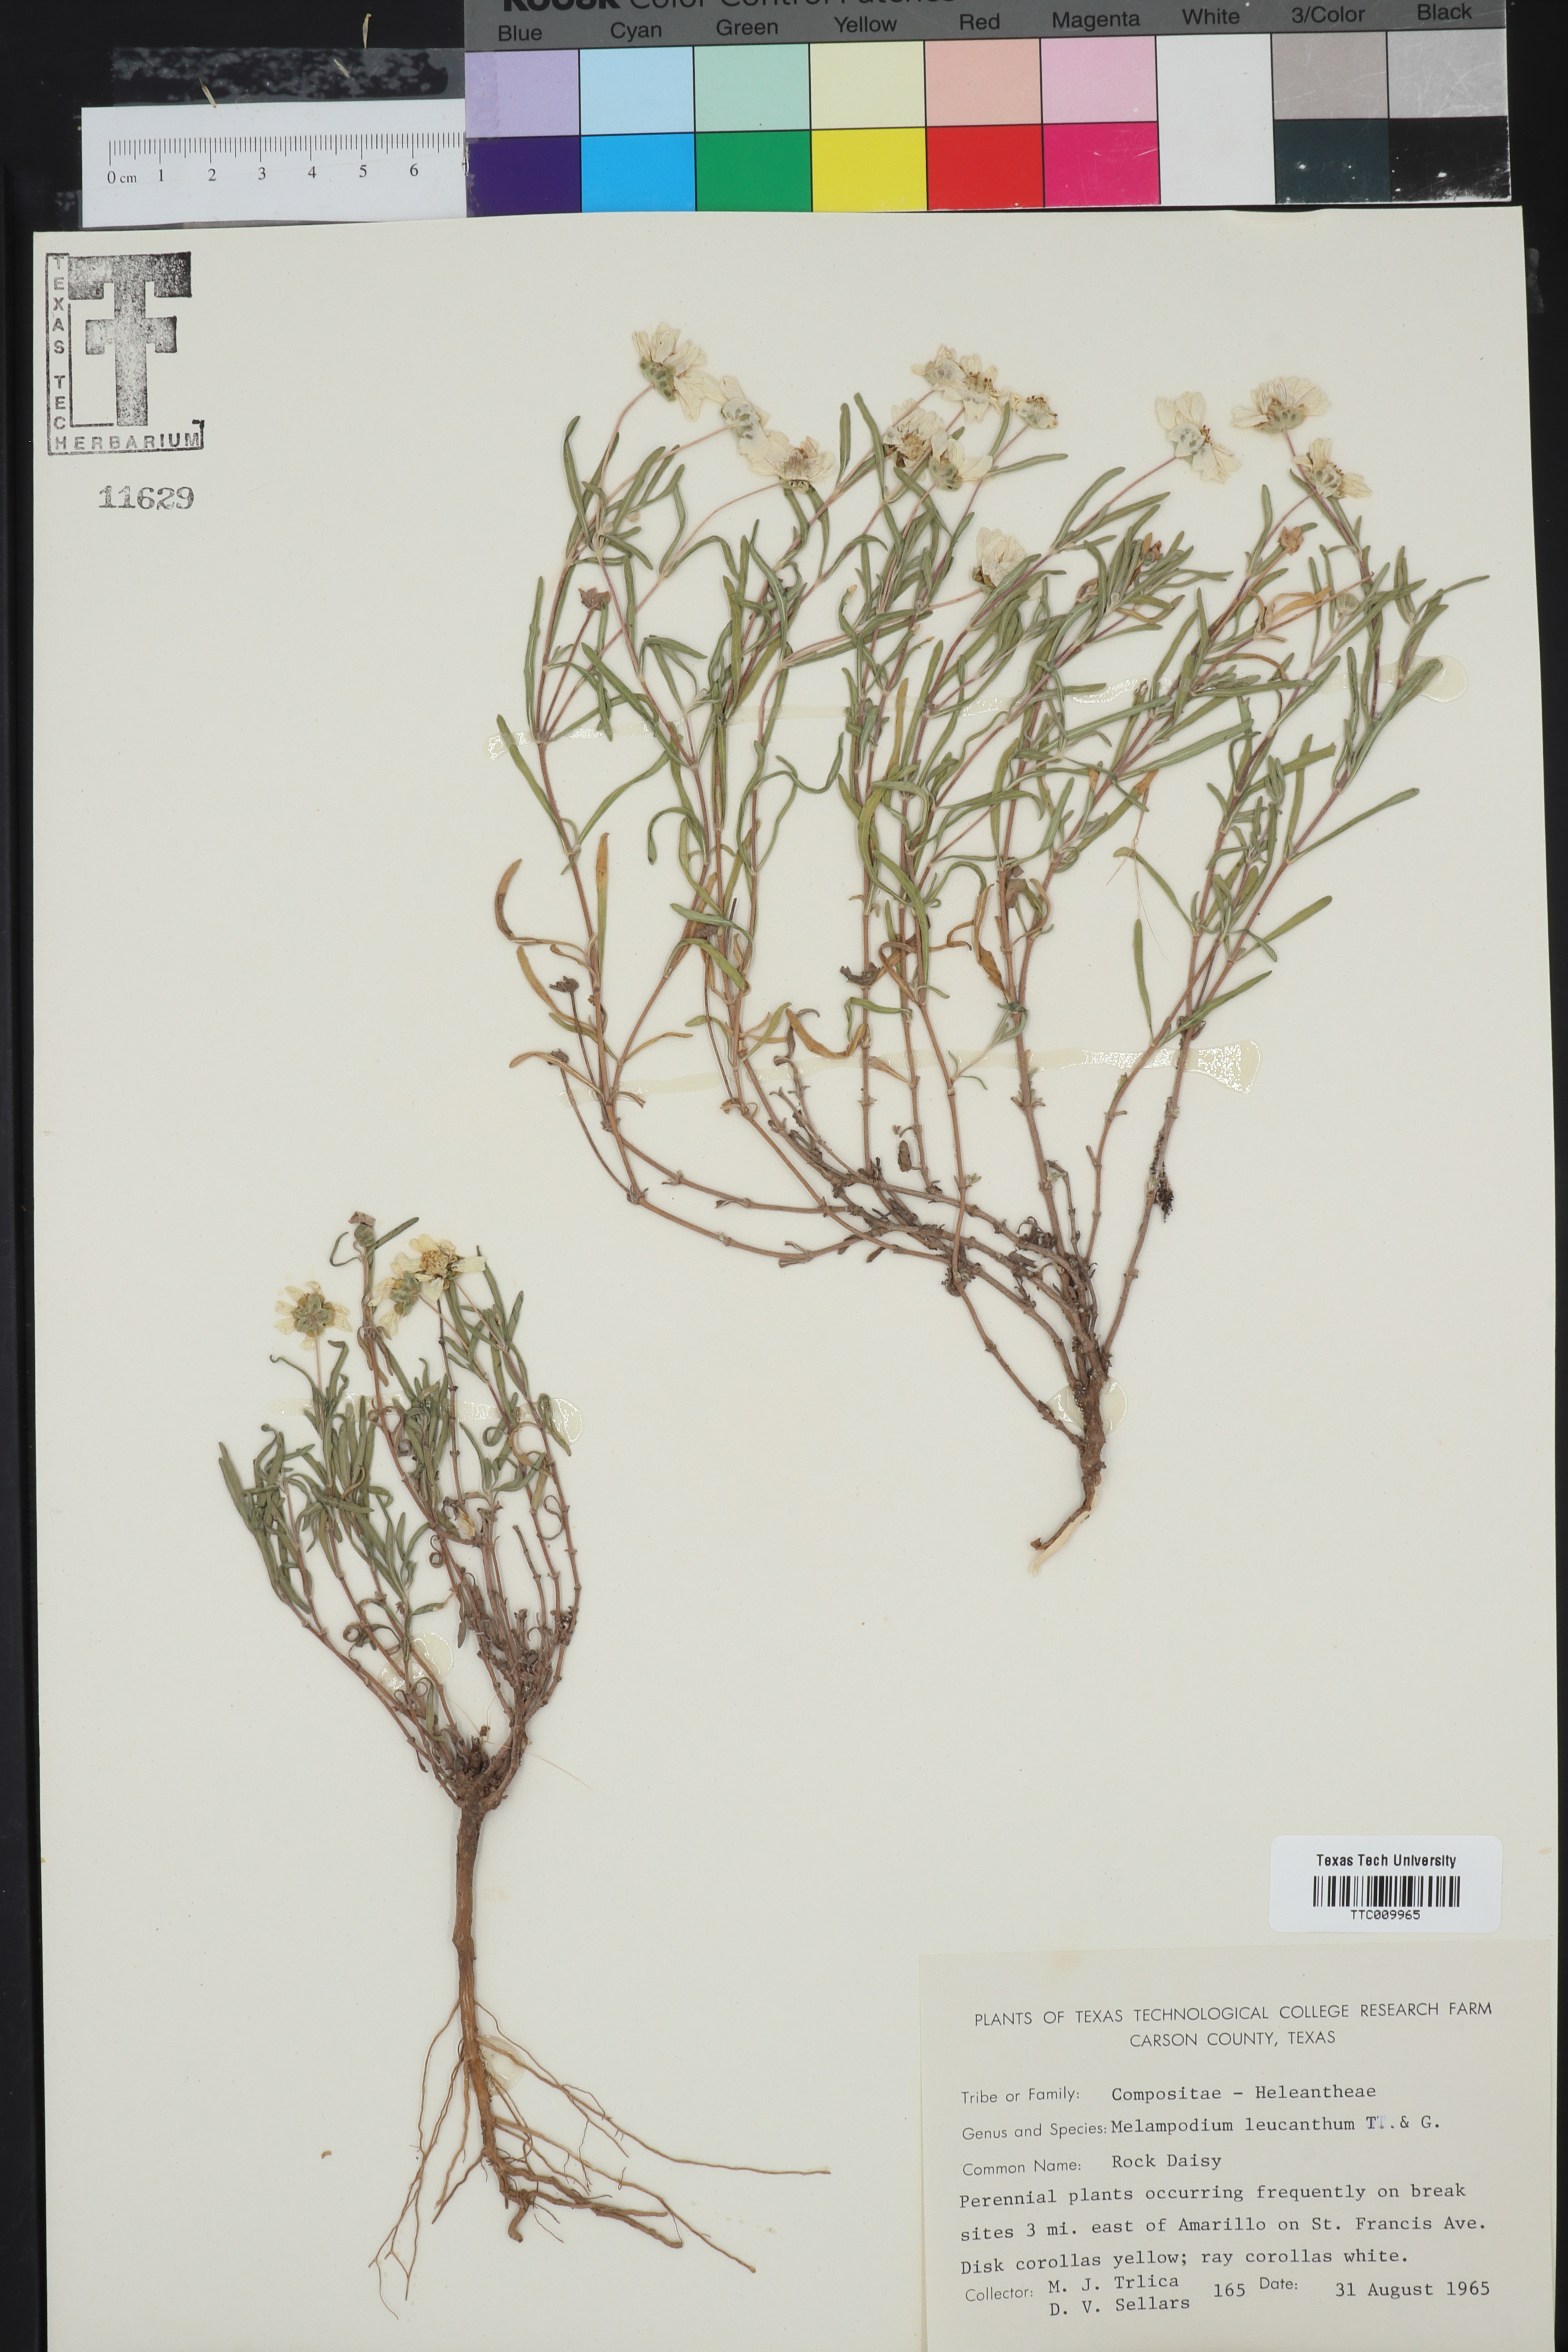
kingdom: Plantae
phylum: Tracheophyta
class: Magnoliopsida
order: Asterales
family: Asteraceae
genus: Melampodium
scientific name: Melampodium leucanthum
